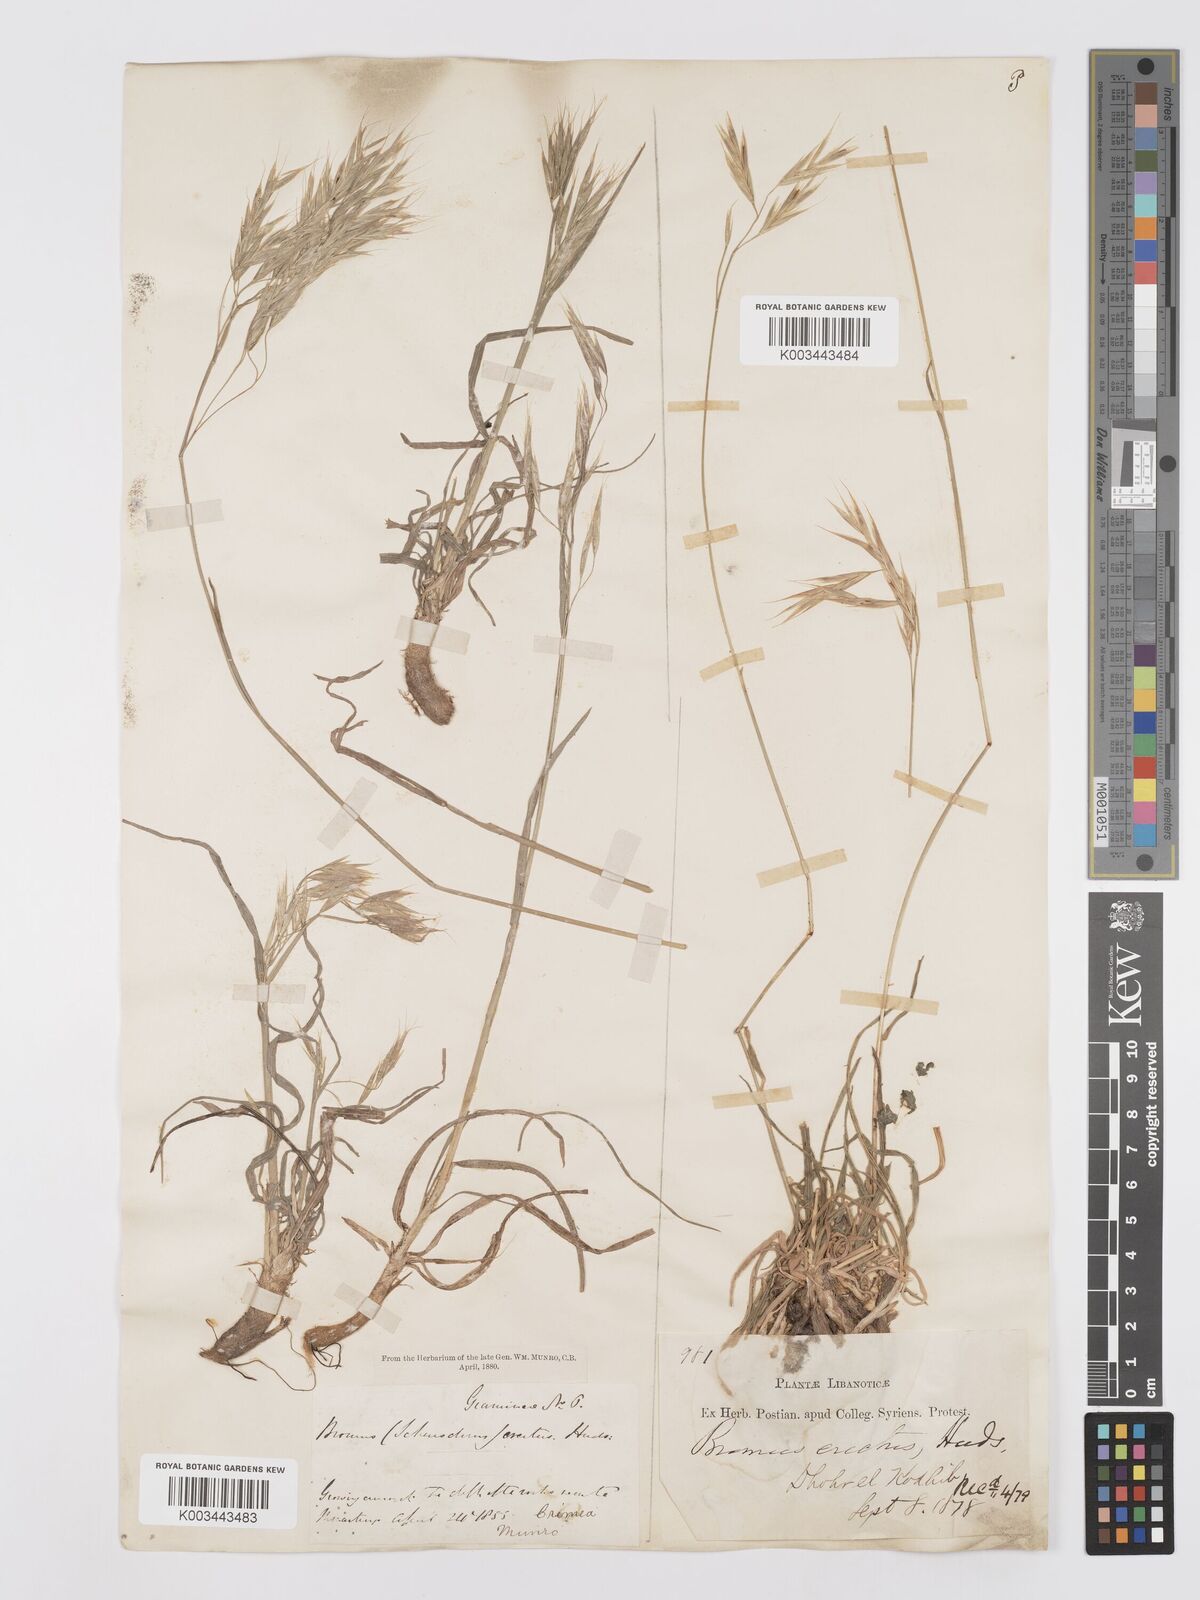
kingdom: Plantae
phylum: Tracheophyta
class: Liliopsida
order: Poales
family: Poaceae
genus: Bromus
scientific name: Bromus tomentellus
